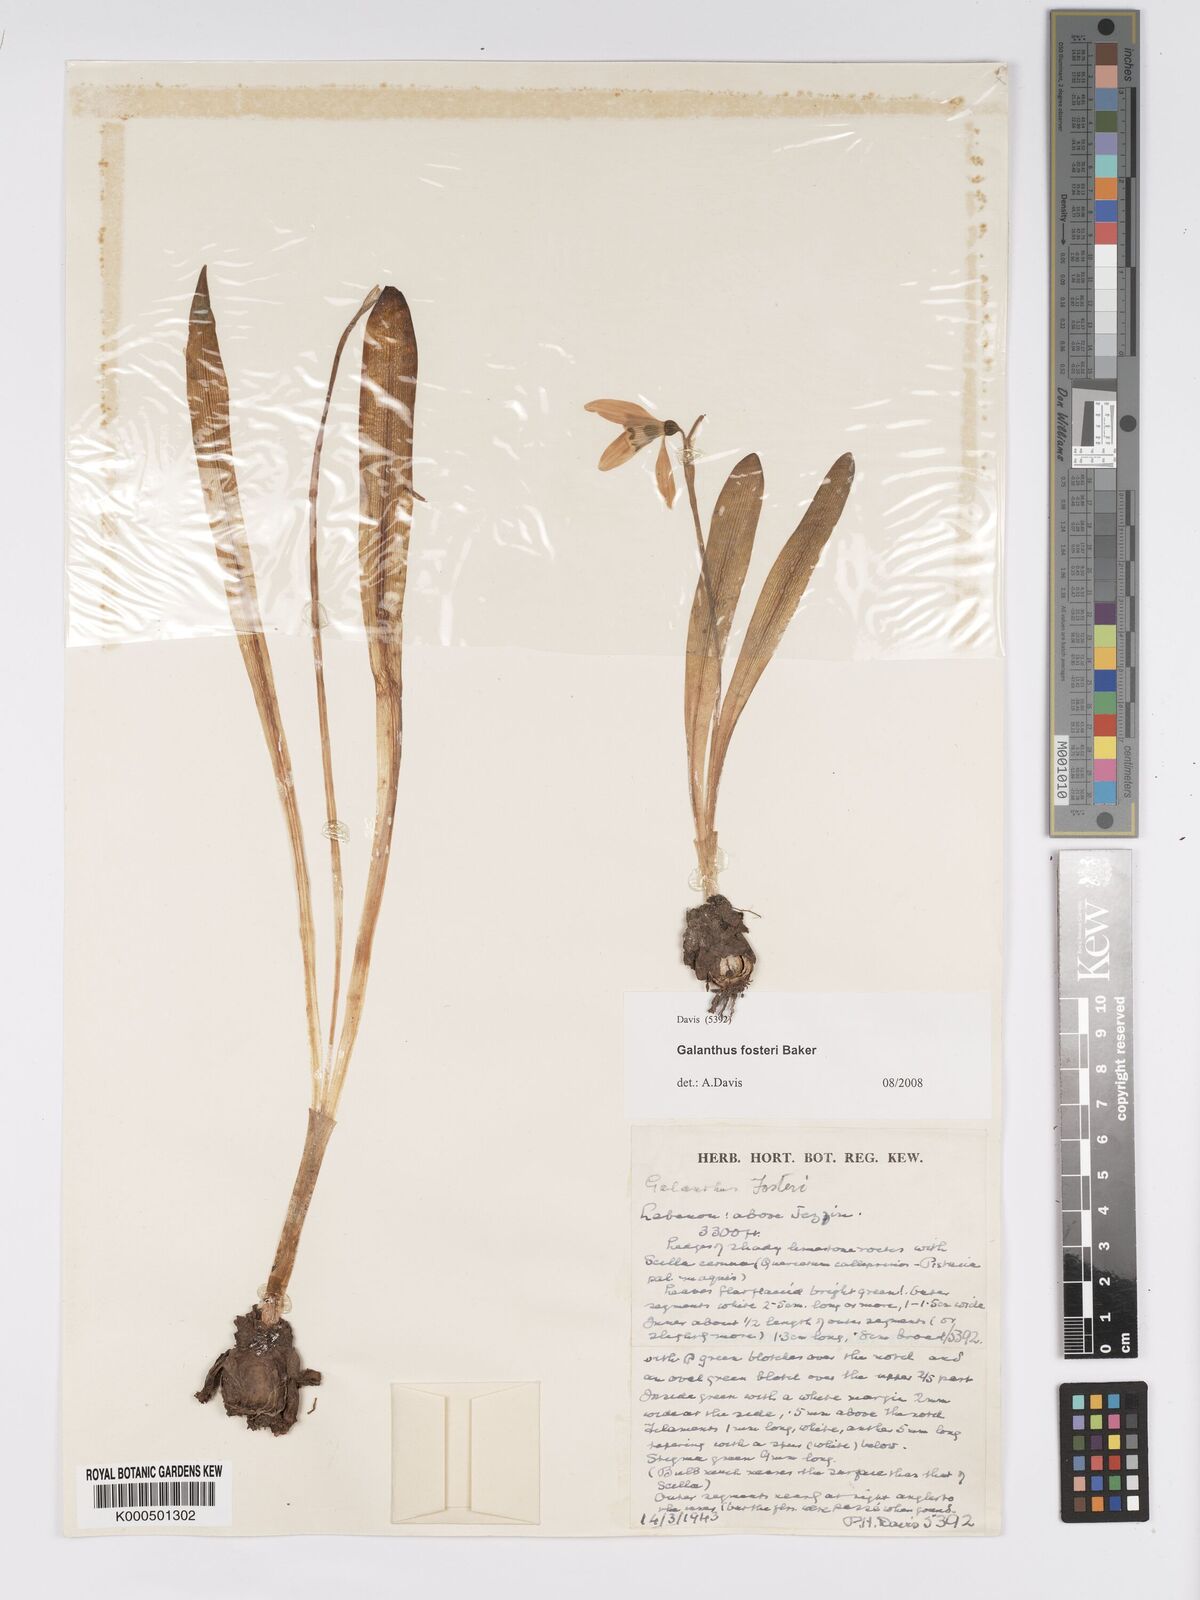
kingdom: Plantae
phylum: Tracheophyta
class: Liliopsida
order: Asparagales
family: Amaryllidaceae
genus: Galanthus
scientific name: Galanthus fosteri
